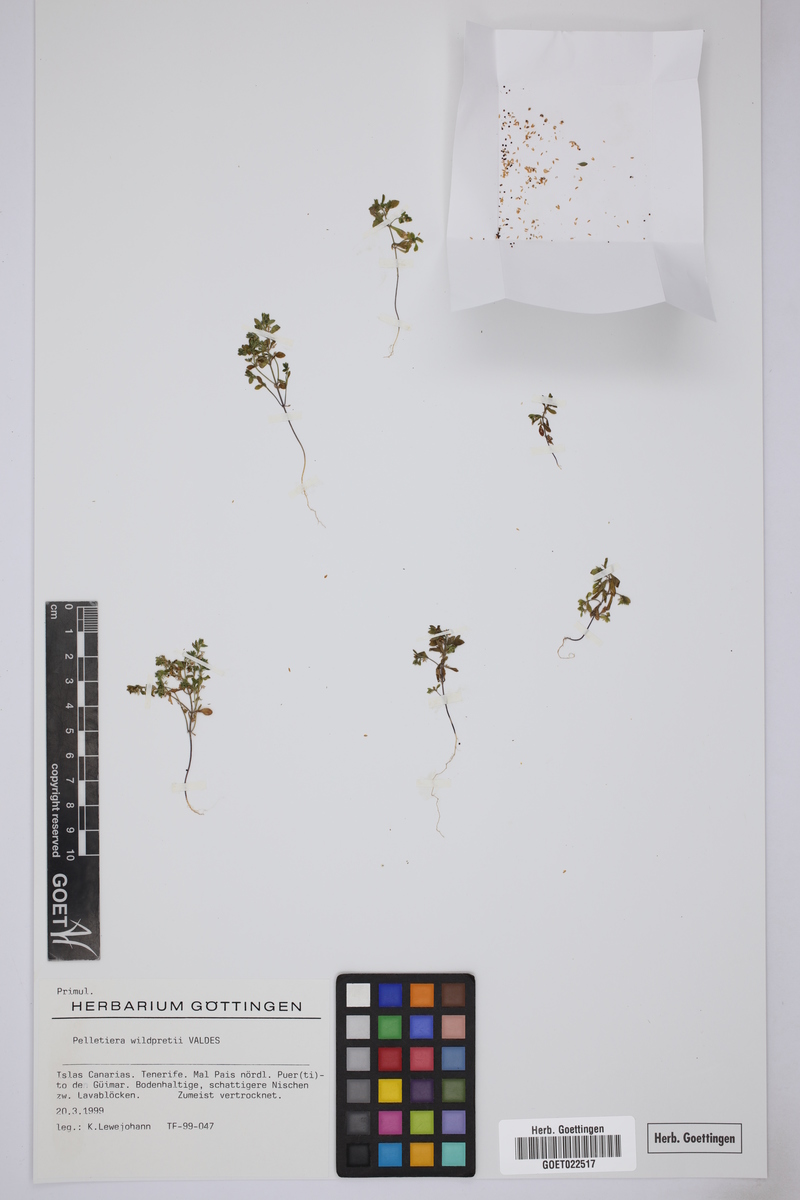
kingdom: Plantae
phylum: Tracheophyta
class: Magnoliopsida
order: Ericales
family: Primulaceae
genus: Lysimachia
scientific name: Lysimachia wildpretii
